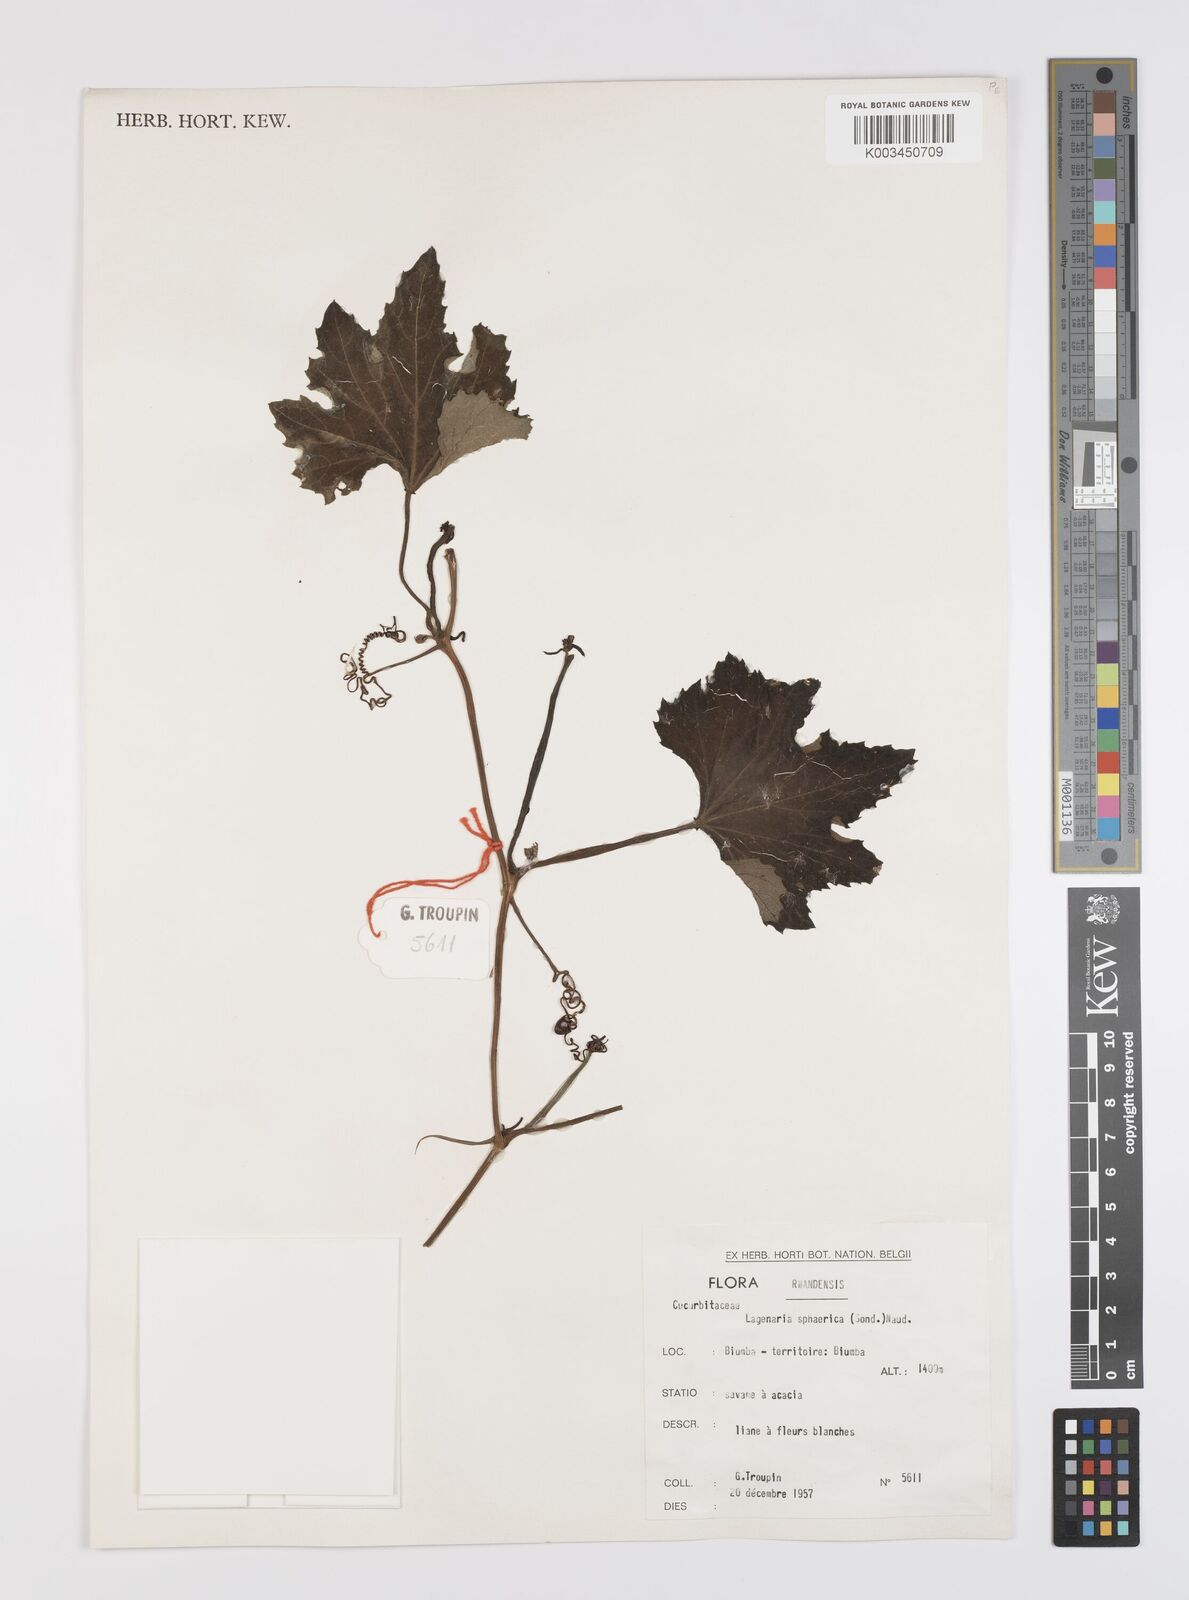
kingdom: Plantae
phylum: Tracheophyta
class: Magnoliopsida
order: Cucurbitales
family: Cucurbitaceae
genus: Lagenaria
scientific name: Lagenaria sphaerica
